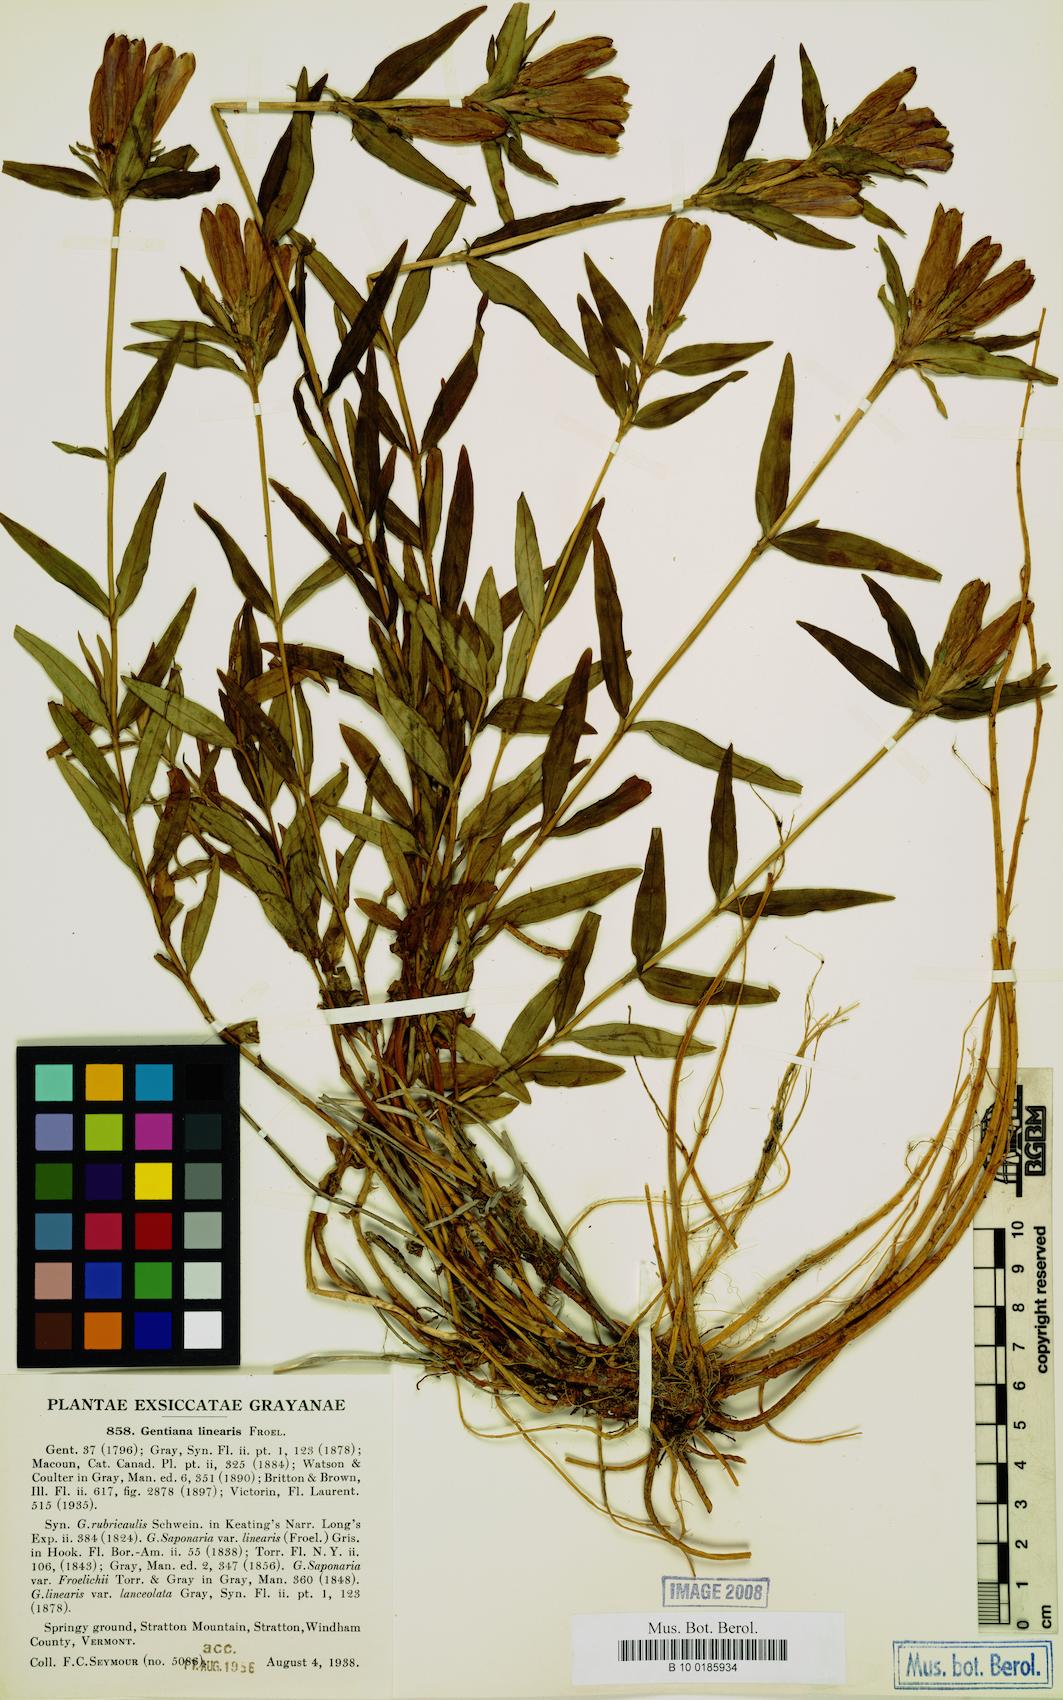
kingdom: Plantae
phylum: Tracheophyta
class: Magnoliopsida
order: Gentianales
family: Gentianaceae
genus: Gentiana
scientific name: Gentiana linearis
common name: Bastard gentian
